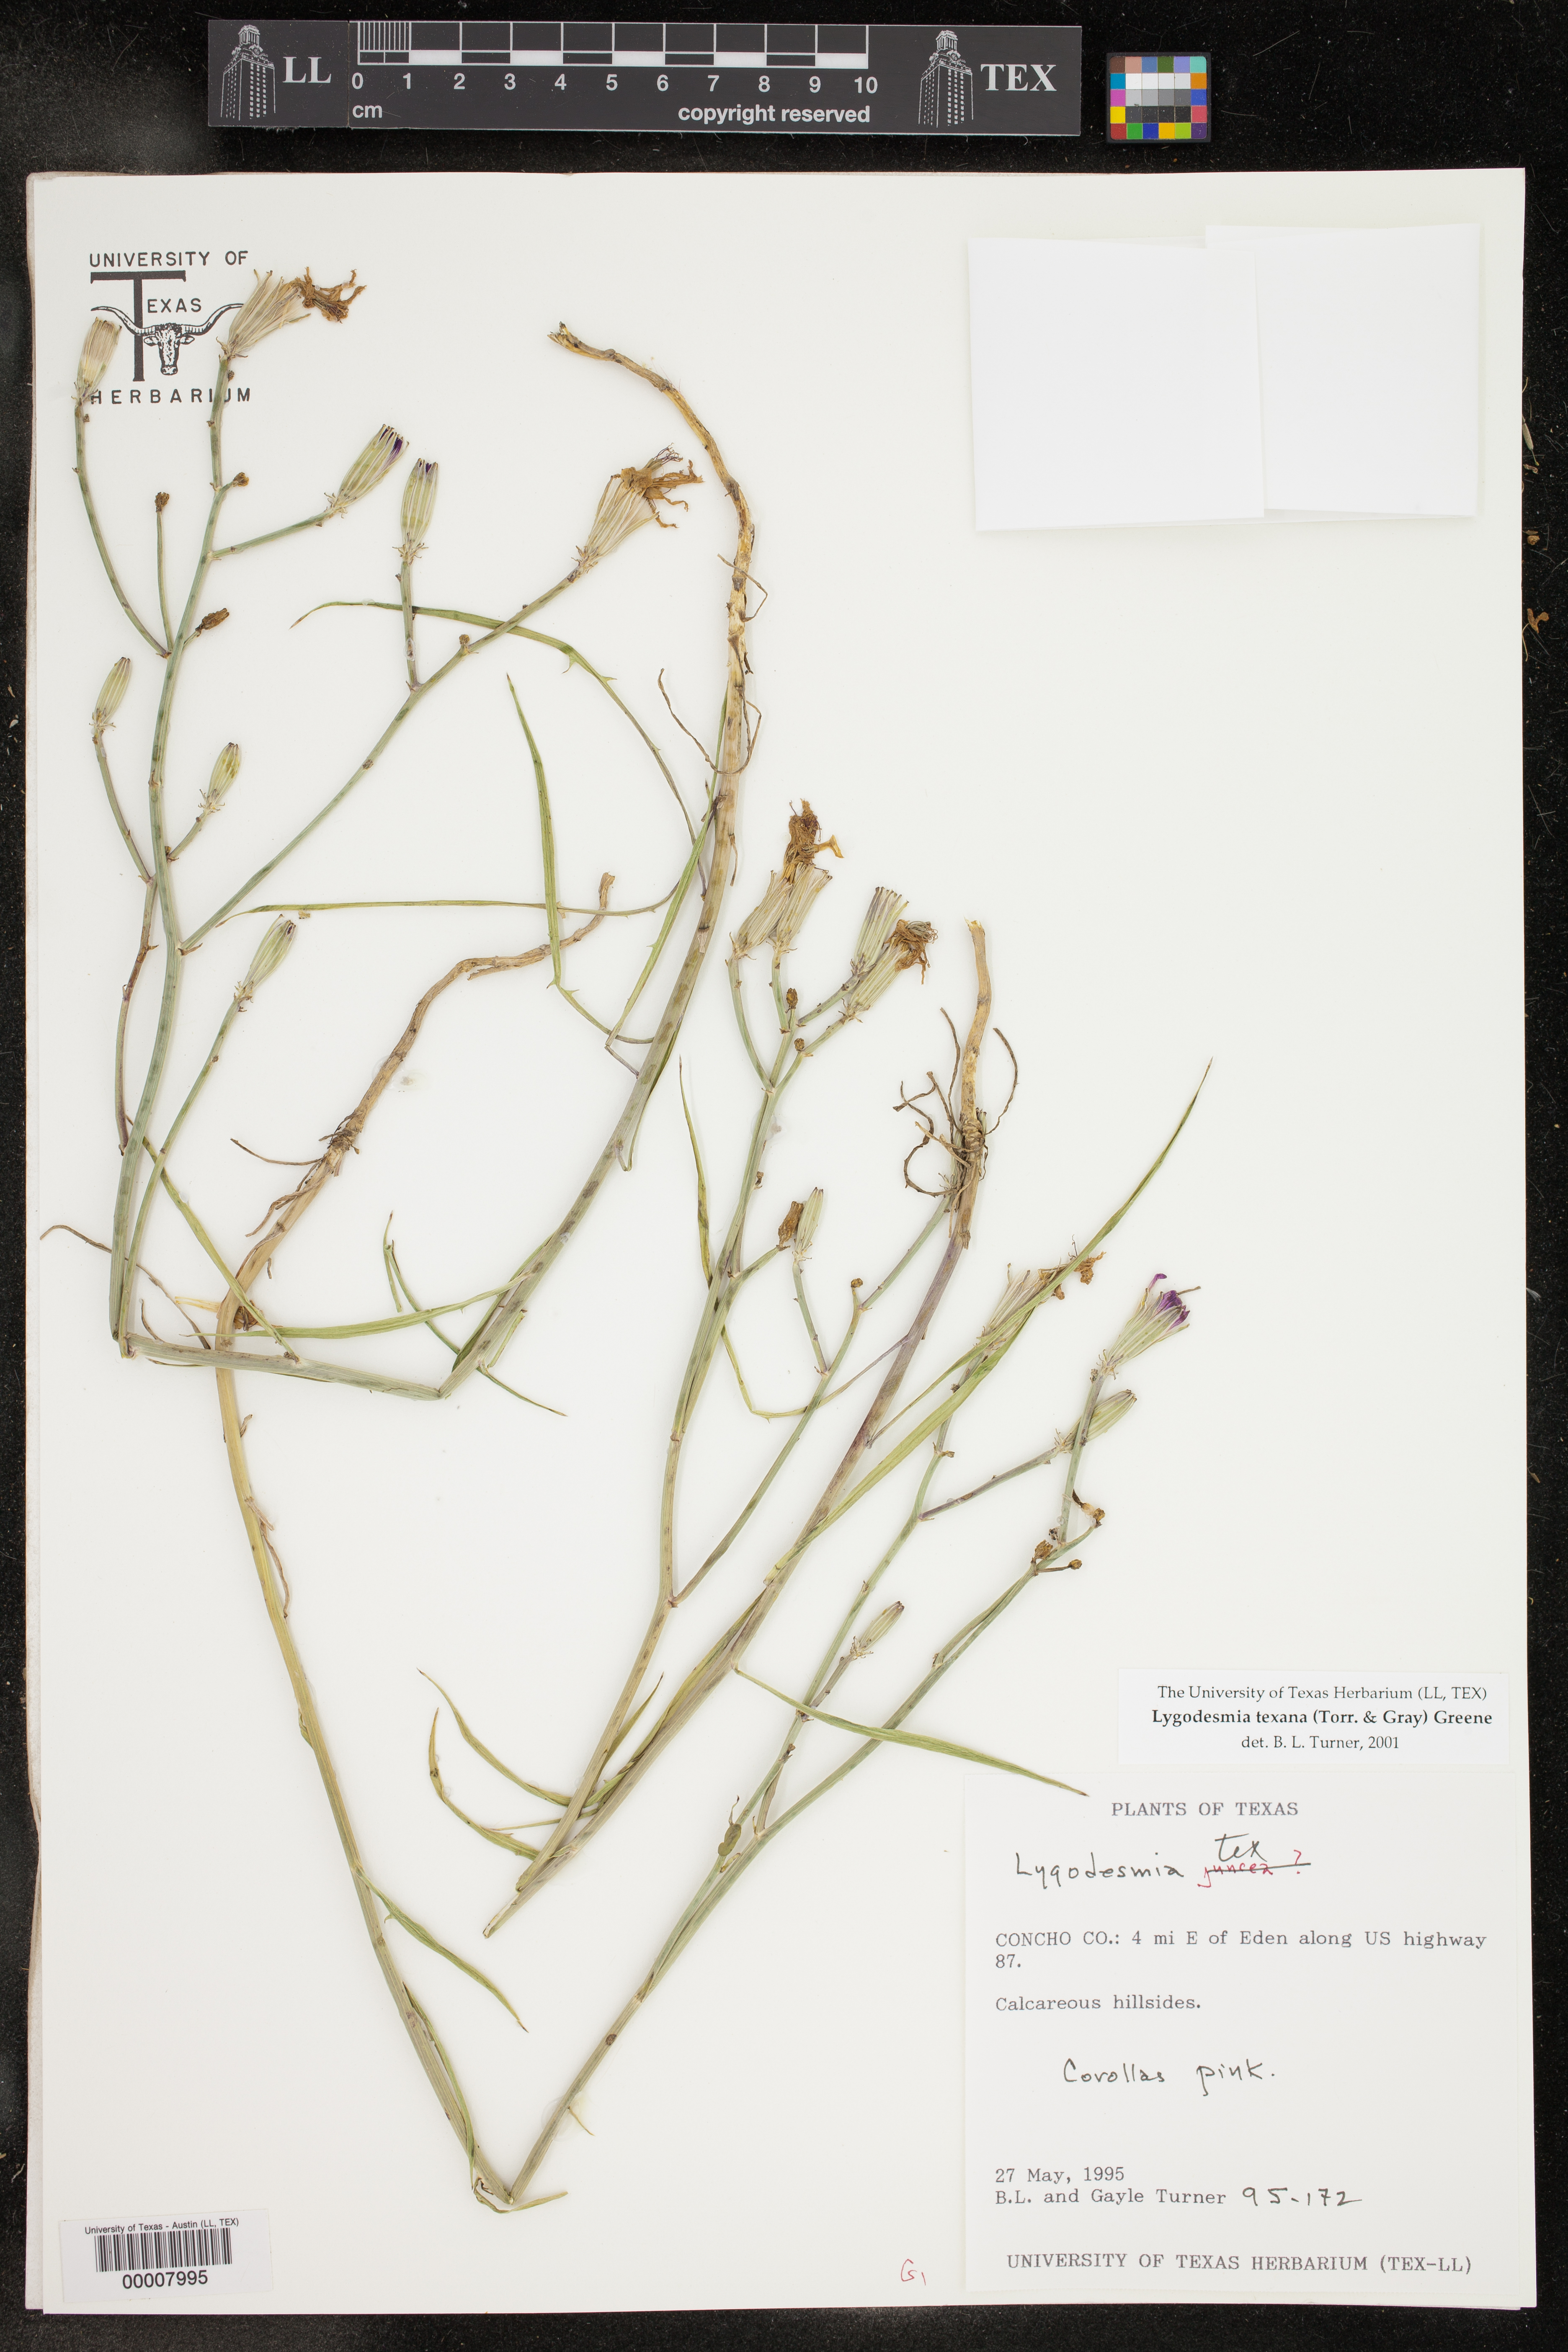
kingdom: Plantae
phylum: Tracheophyta
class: Magnoliopsida
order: Asterales
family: Asteraceae
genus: Lygodesmia
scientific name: Lygodesmia texana
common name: Texas skeleton-plant
